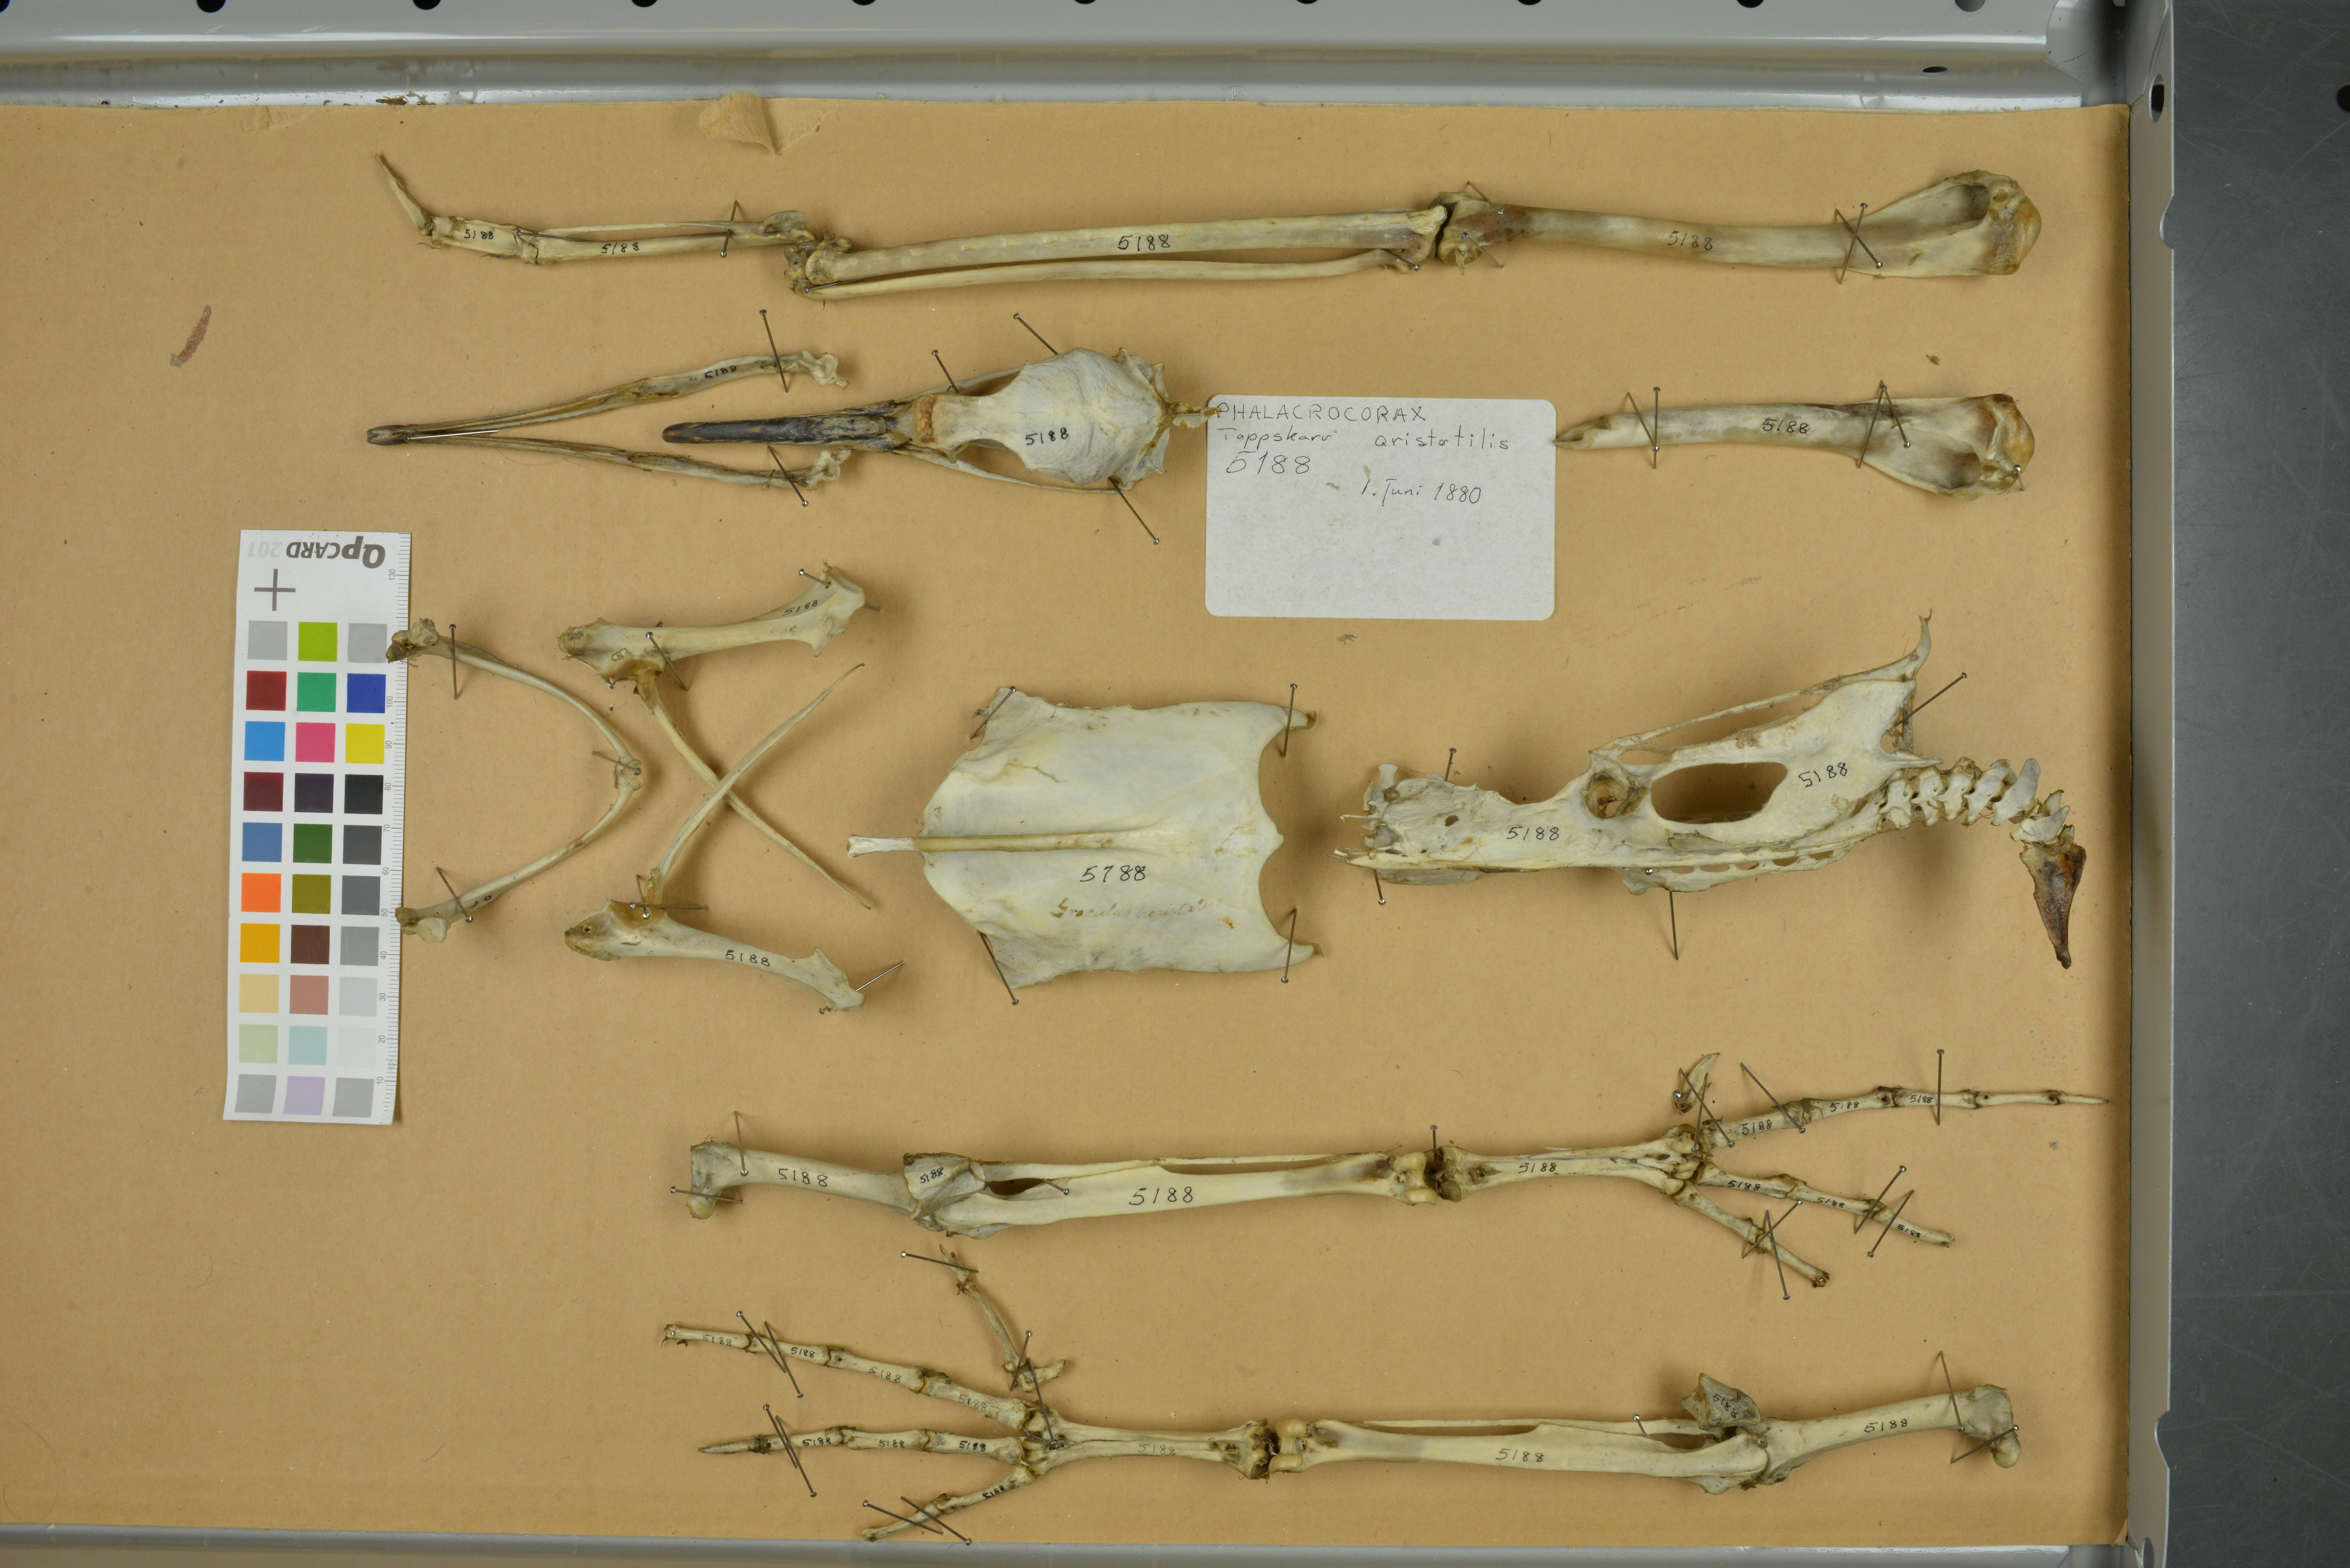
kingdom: Animalia
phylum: Chordata
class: Aves
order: Suliformes
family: Phalacrocoracidae
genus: Phalacrocorax
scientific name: Phalacrocorax aristotelis
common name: European shag
